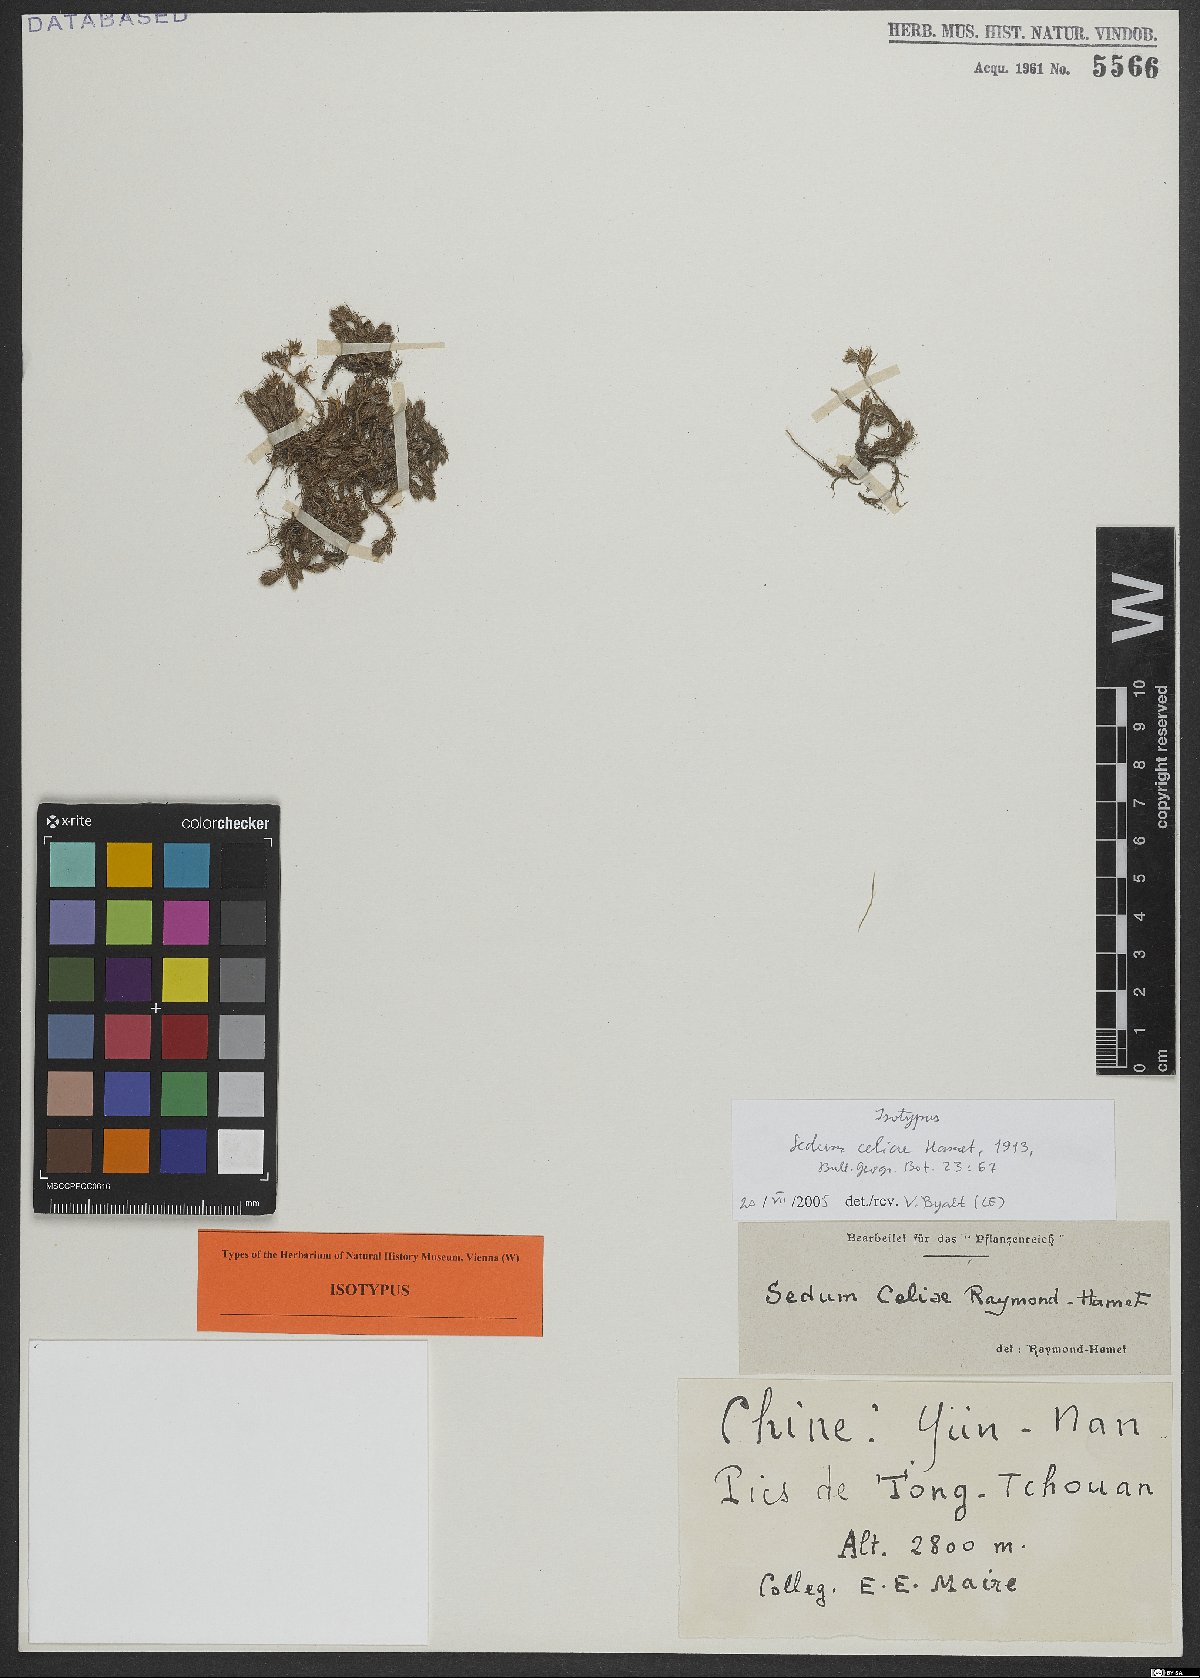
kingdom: Plantae
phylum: Tracheophyta
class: Magnoliopsida
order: Saxifragales
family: Crassulaceae
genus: Sedum
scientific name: Sedum celiae
